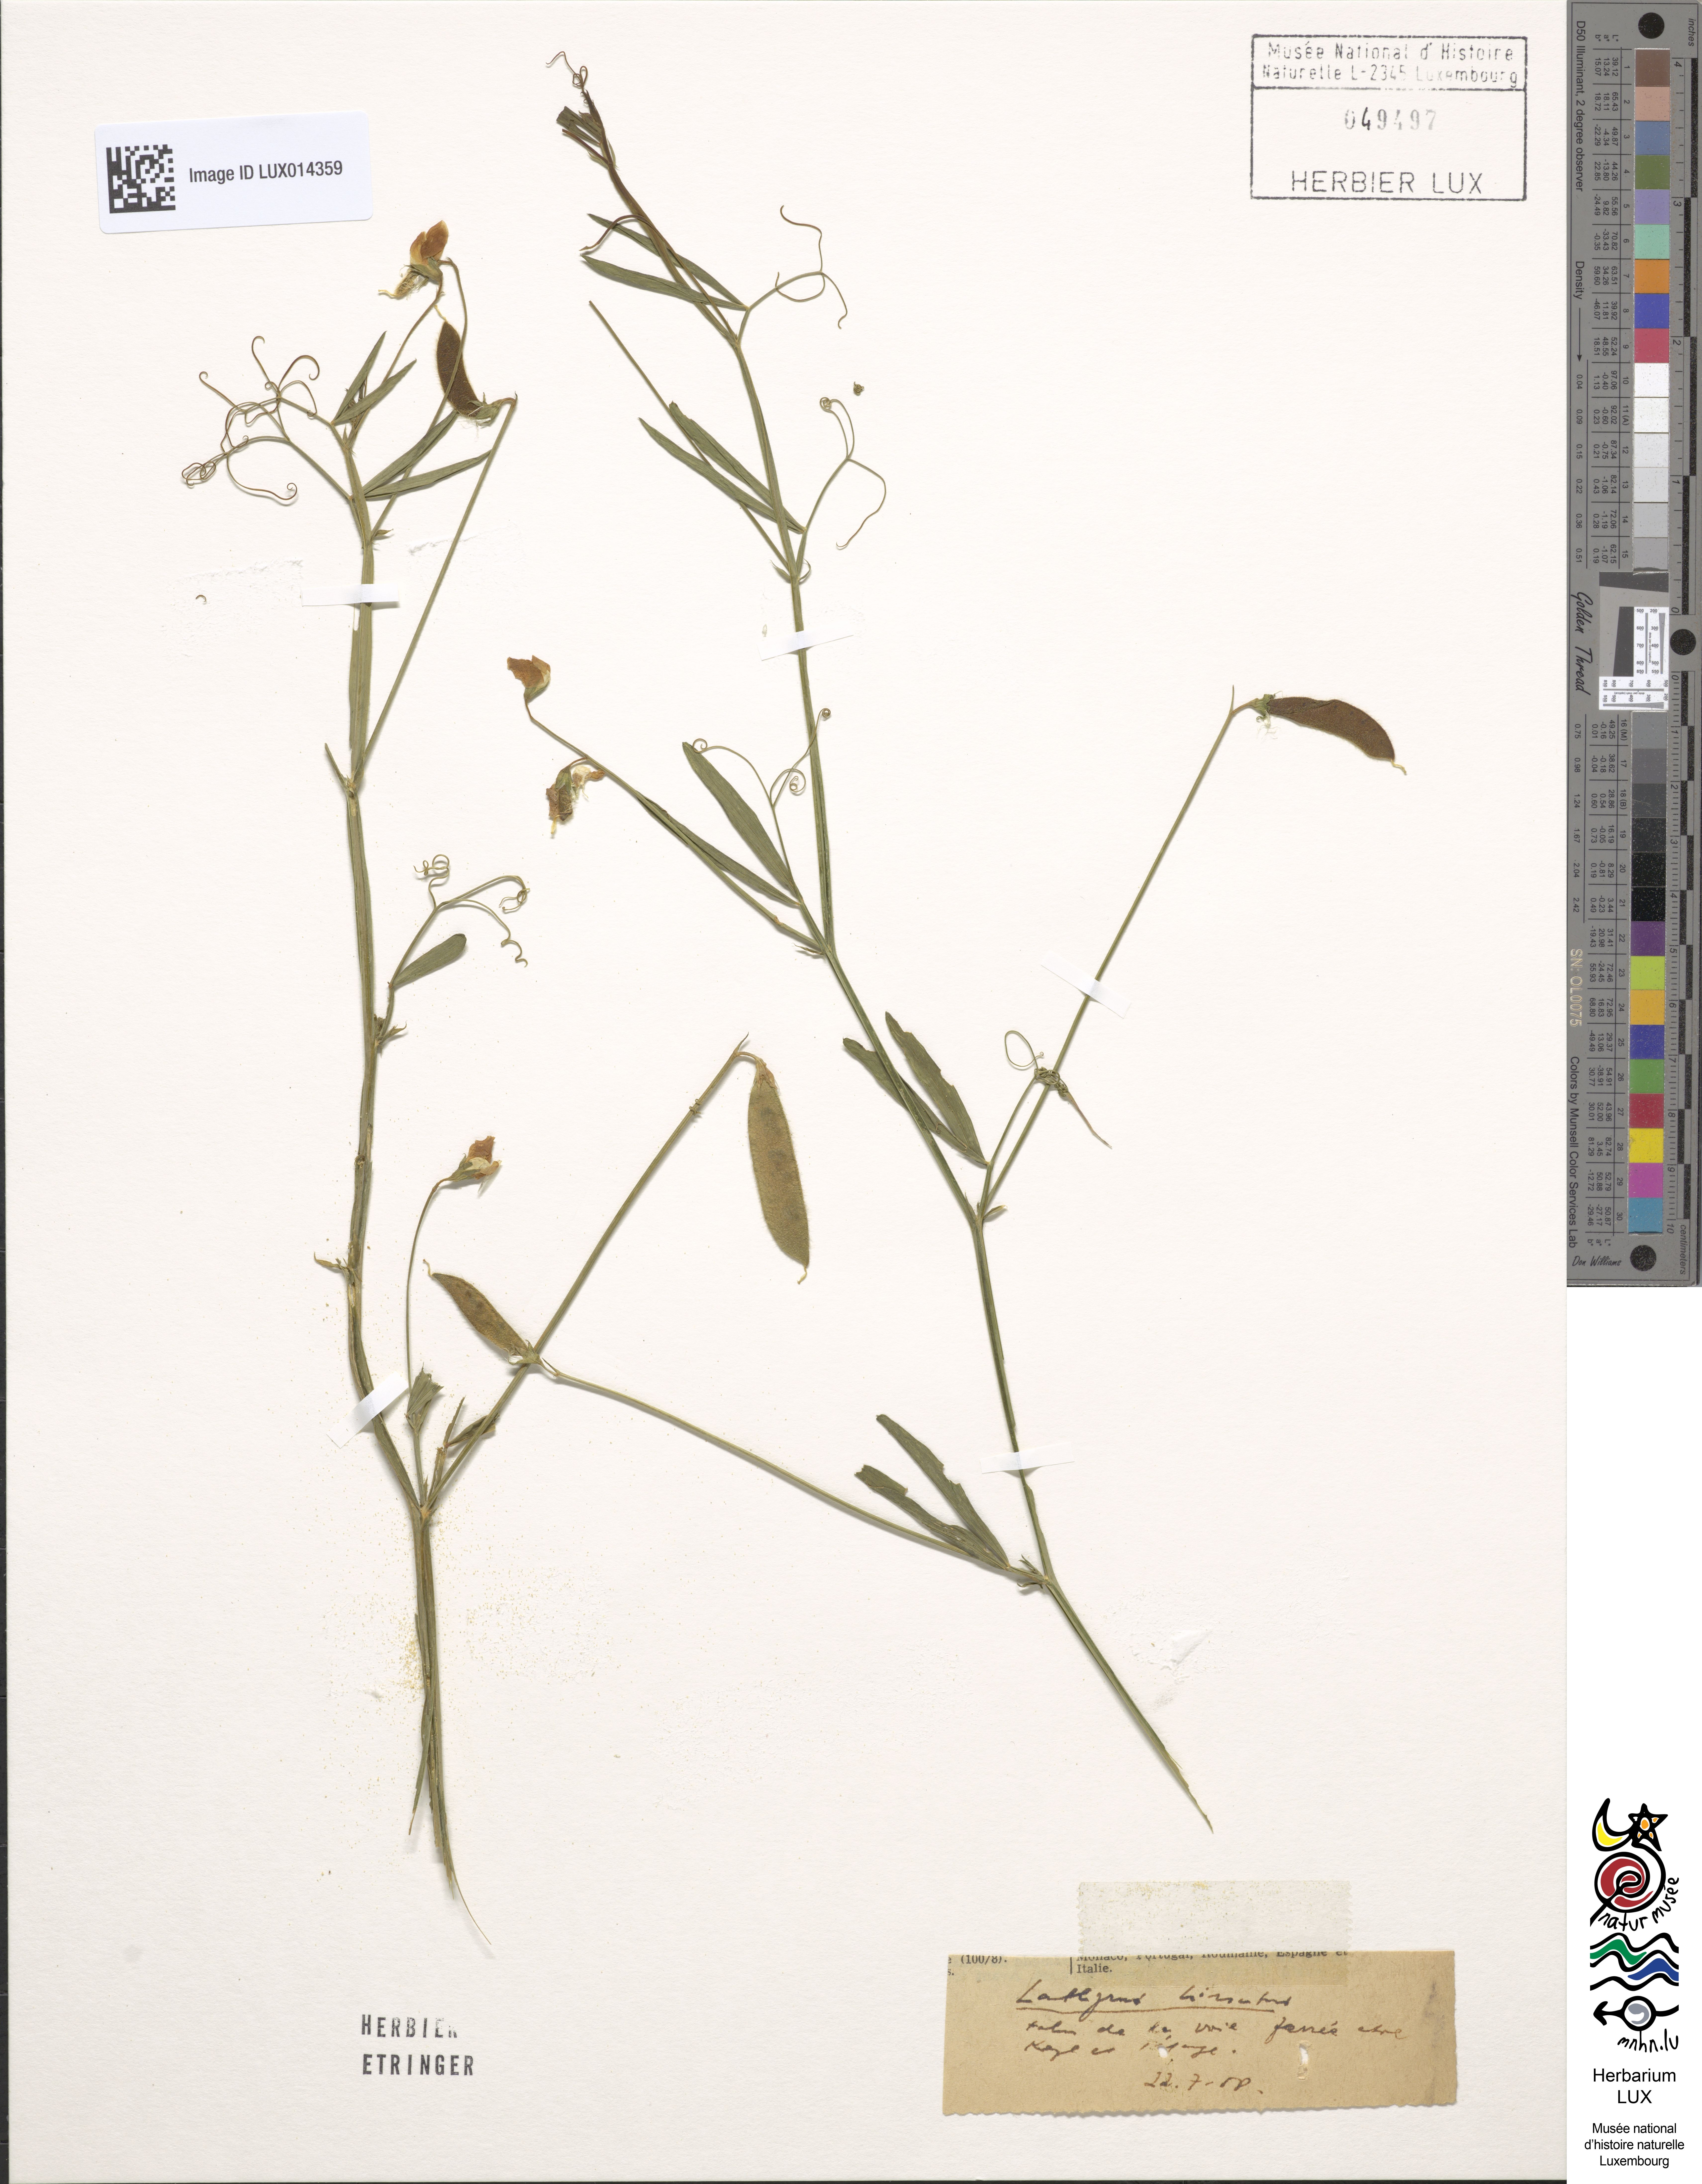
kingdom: Plantae
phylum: Tracheophyta
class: Magnoliopsida
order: Fabales
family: Fabaceae
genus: Lathyrus
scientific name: Lathyrus hirsutus
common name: Hairy vetchling
